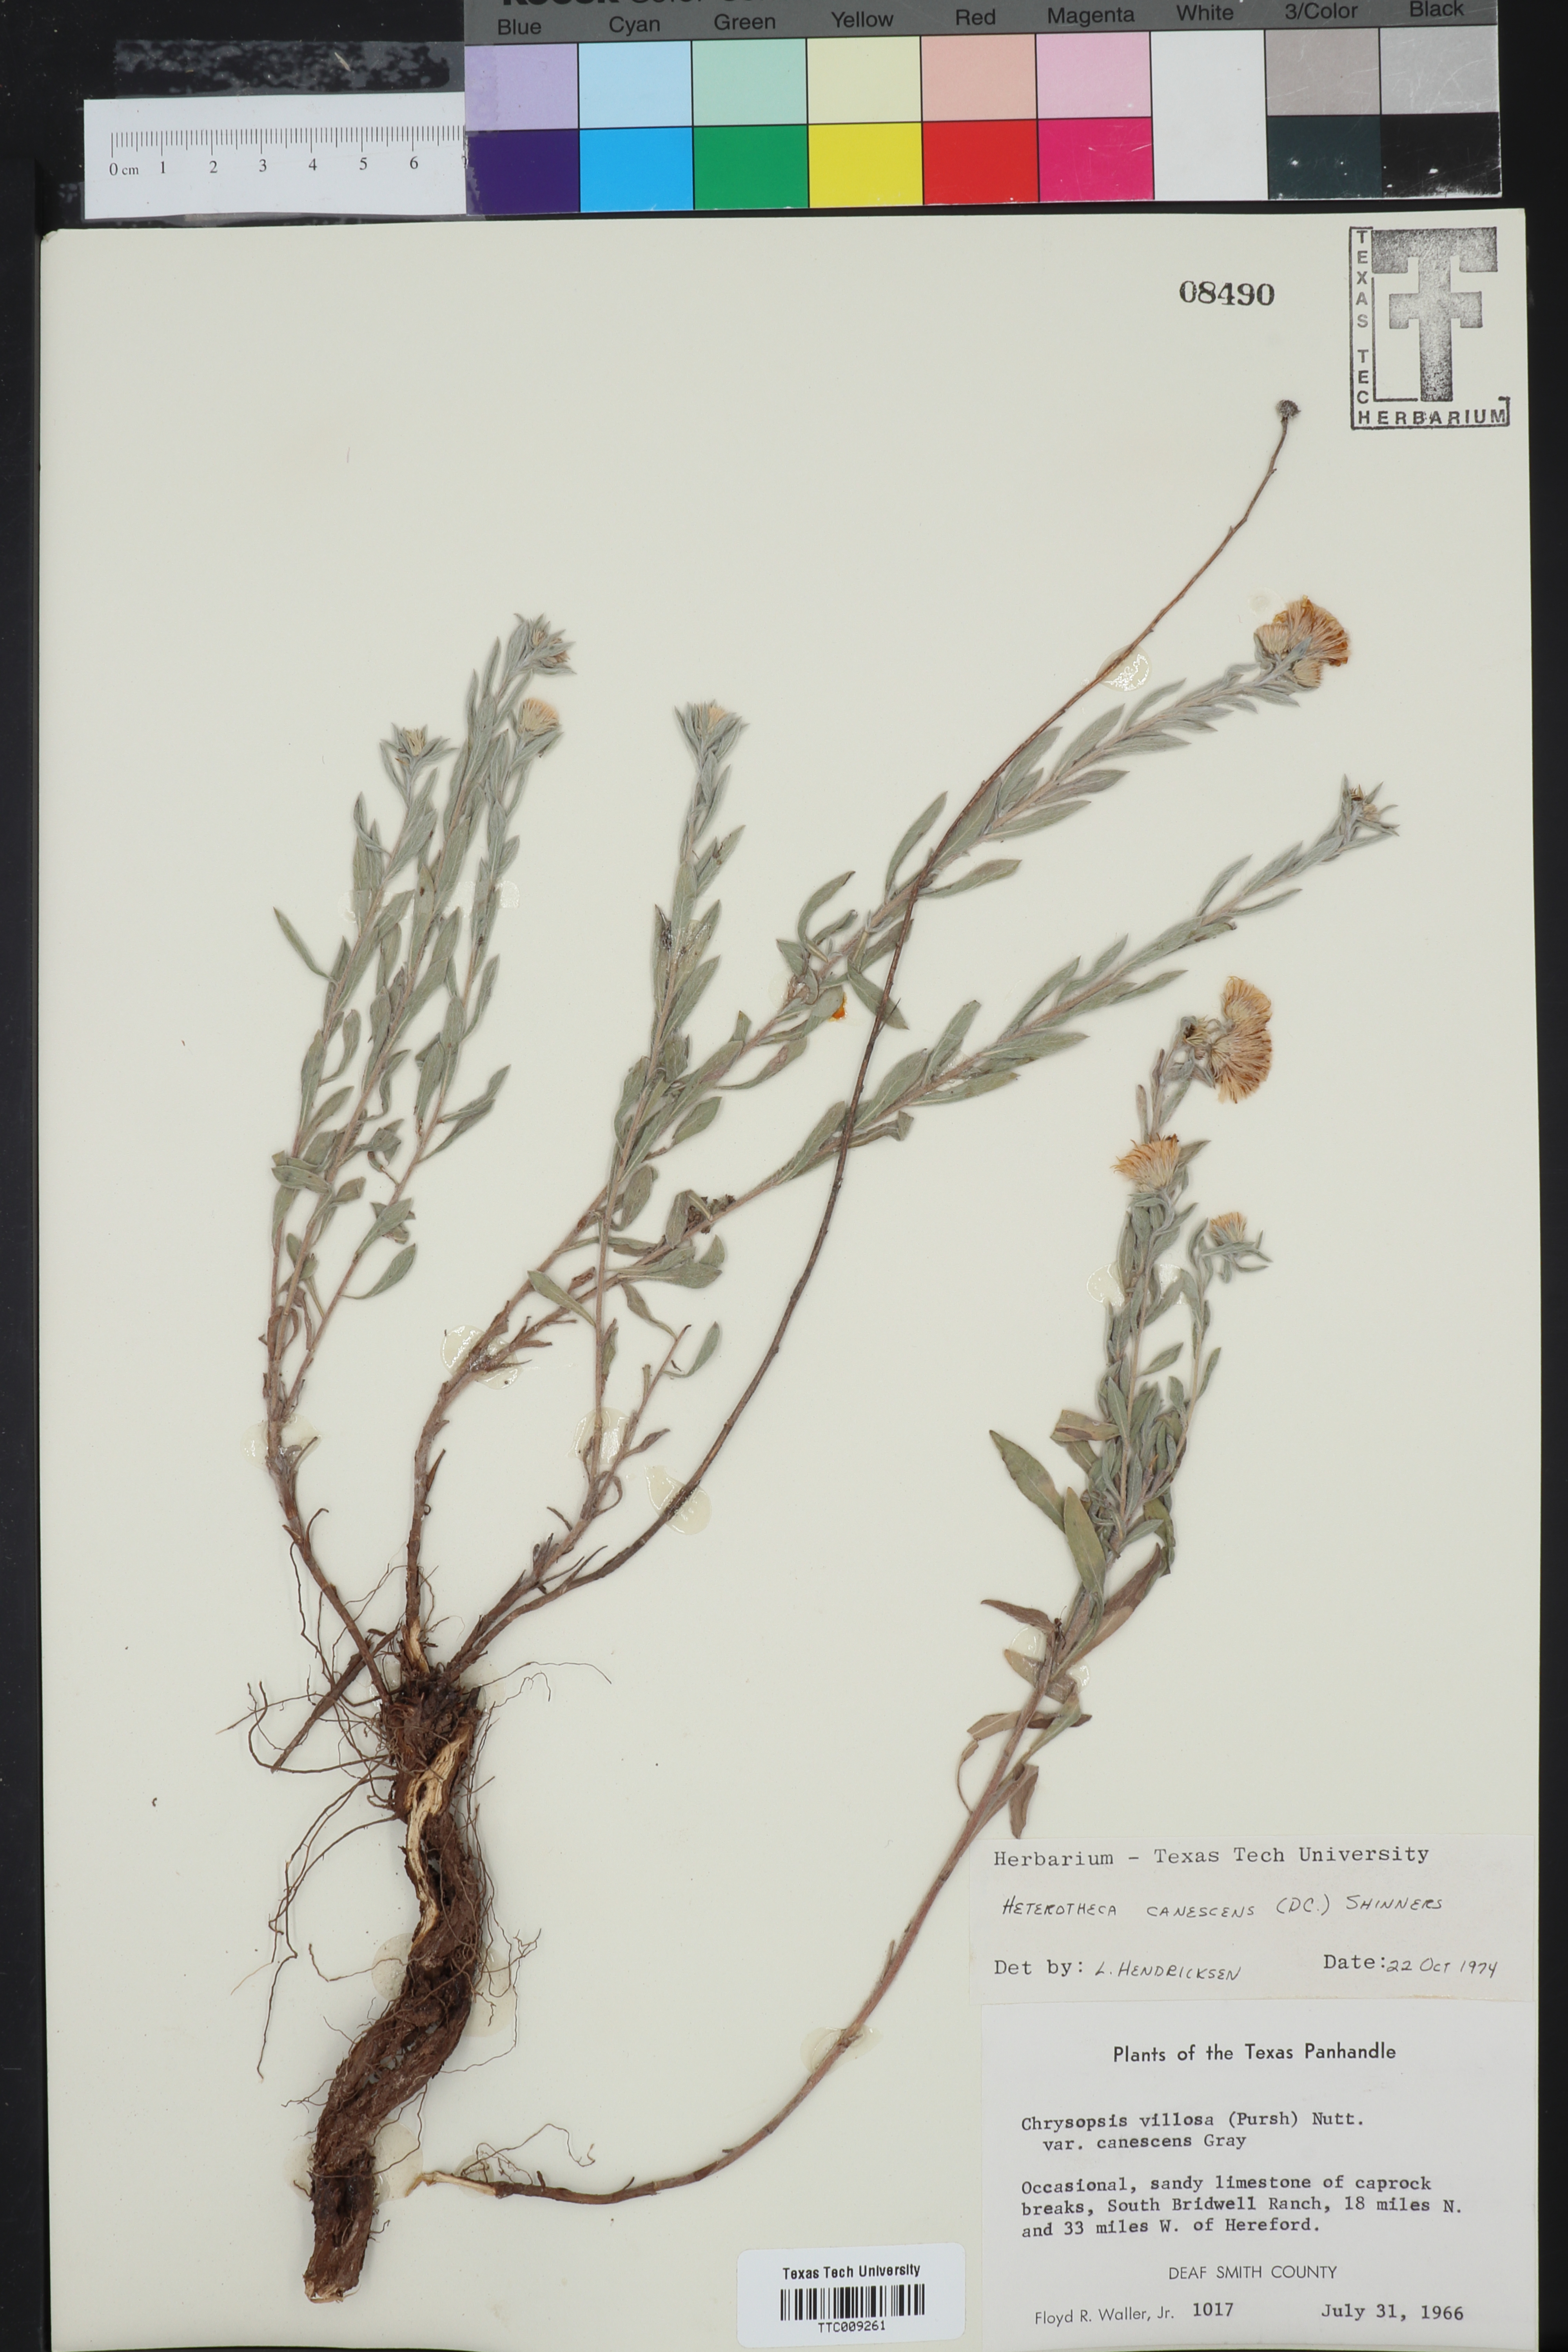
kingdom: Plantae
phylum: Tracheophyta
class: Magnoliopsida
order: Asterales
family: Asteraceae
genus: Heterotheca
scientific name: Heterotheca canescens
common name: Hoary golden-aster
